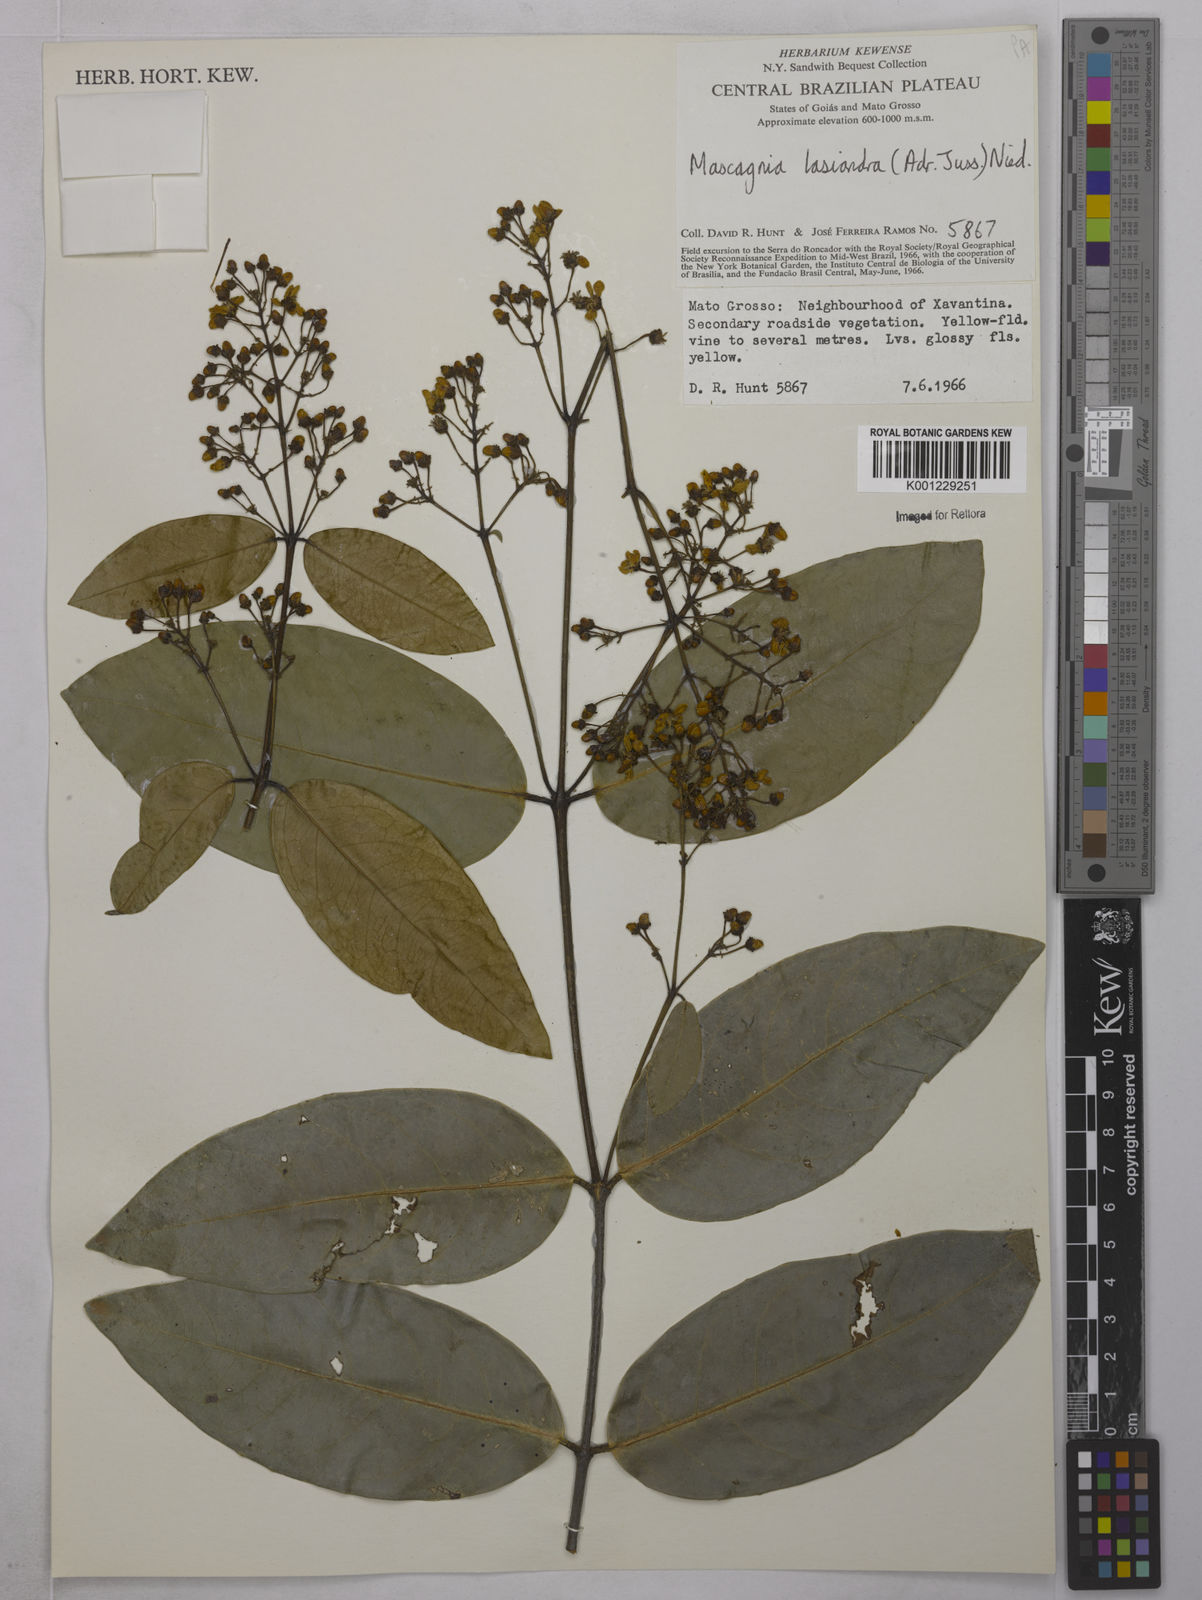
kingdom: Plantae
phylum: Tracheophyta
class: Magnoliopsida
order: Malpighiales
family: Malpighiaceae
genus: Niedenzuella
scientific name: Niedenzuella lasiandra
